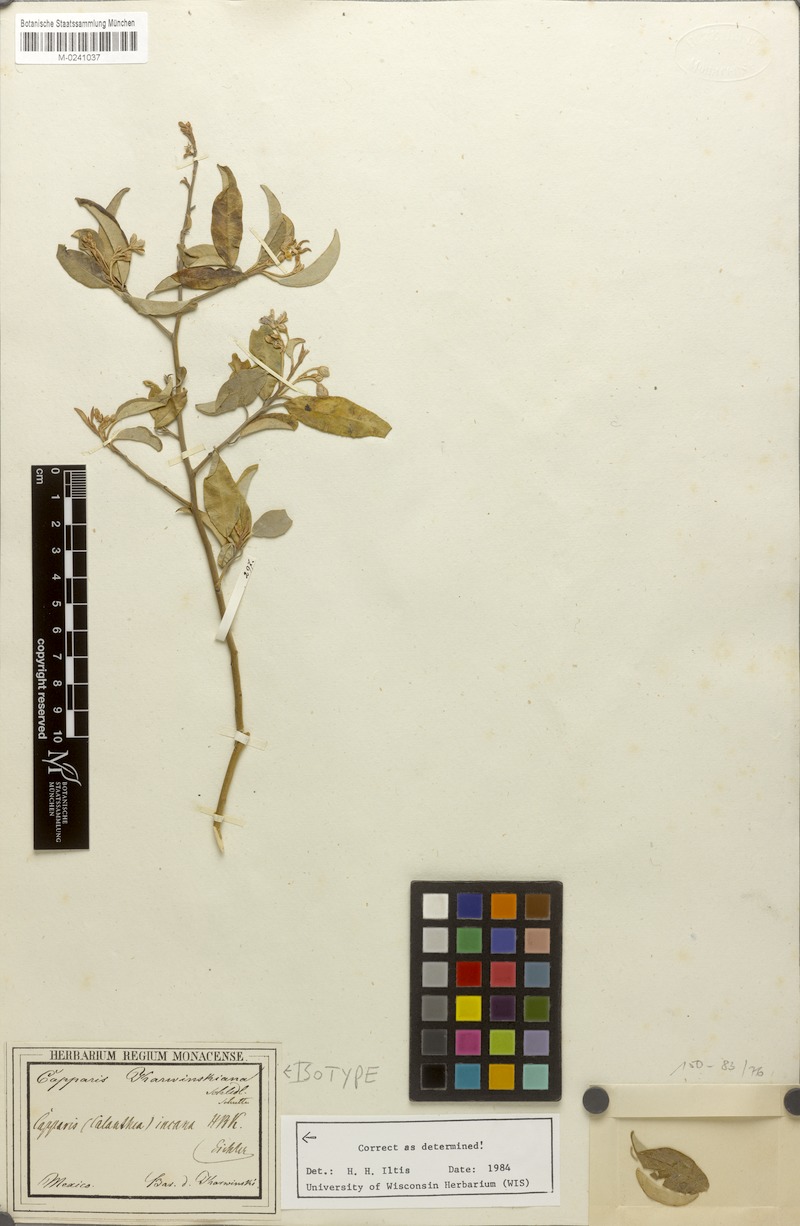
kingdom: Plantae
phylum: Tracheophyta
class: Magnoliopsida
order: Brassicales
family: Capparaceae
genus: Quadrella
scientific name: Quadrella incana
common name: Hoary caper
